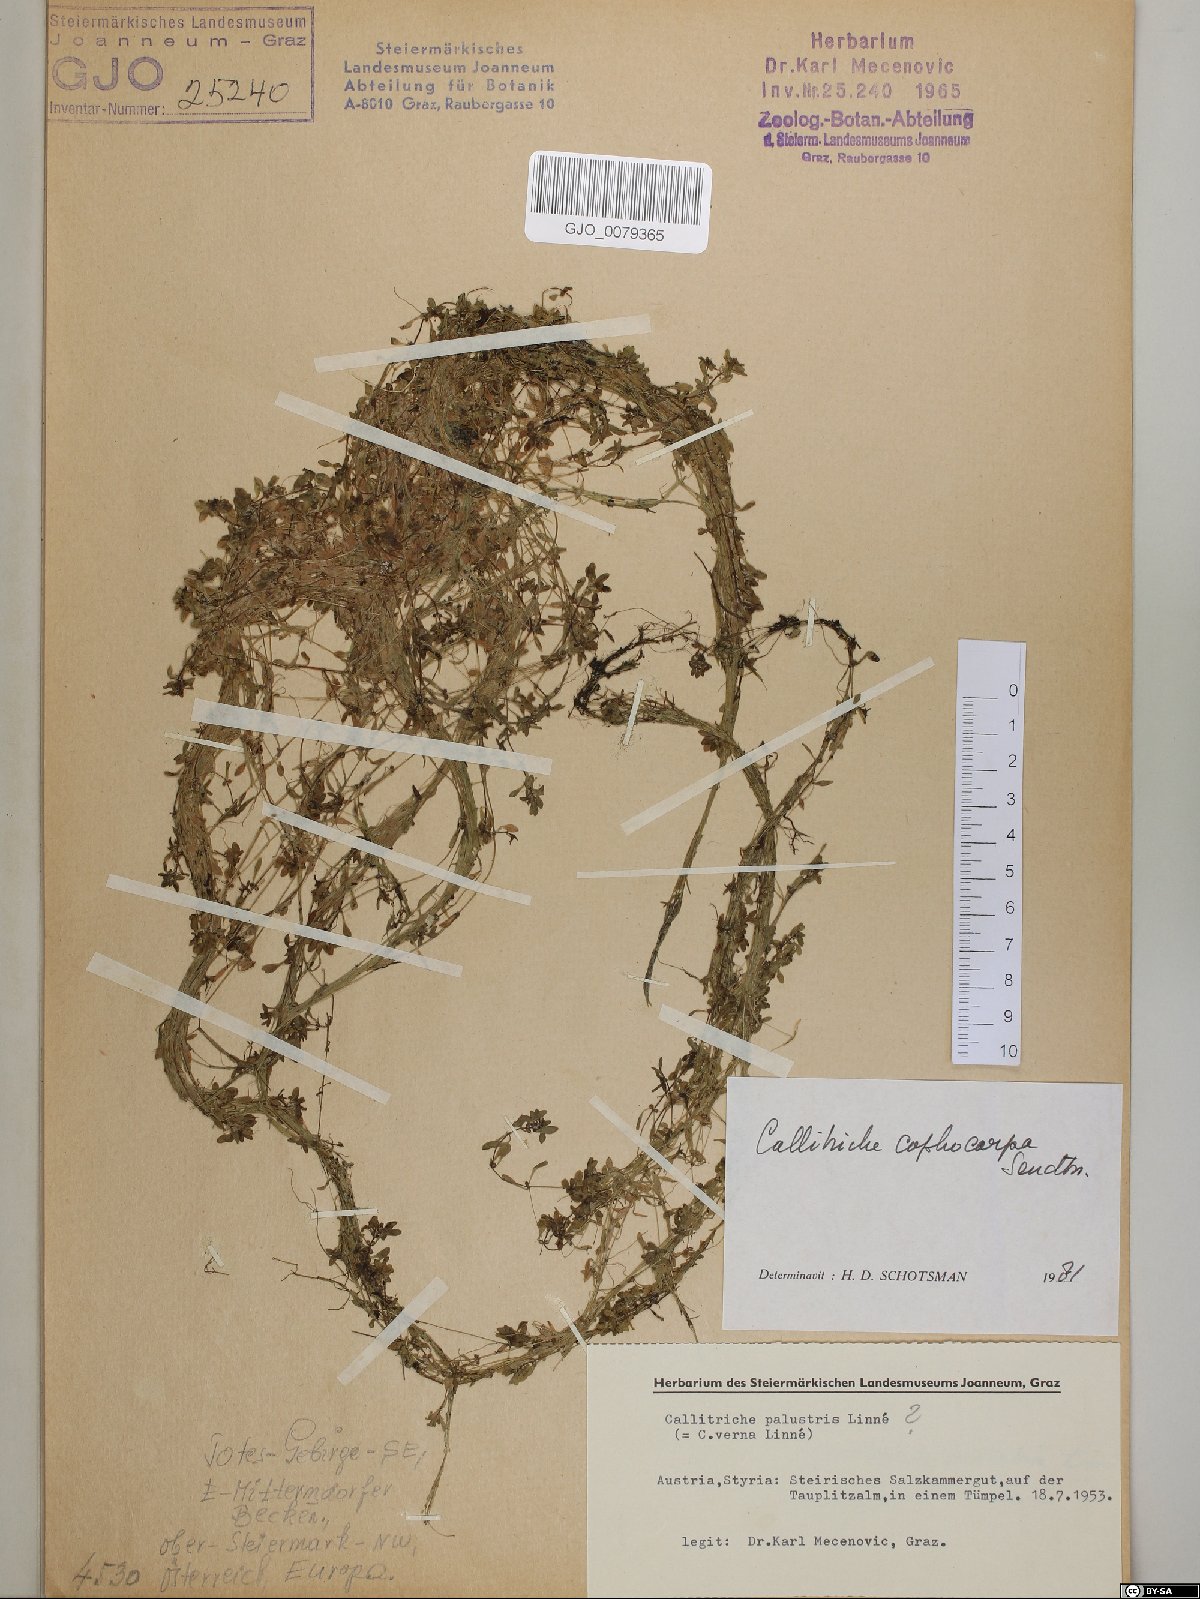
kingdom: Plantae
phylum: Tracheophyta
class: Magnoliopsida
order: Lamiales
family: Plantaginaceae
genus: Callitriche
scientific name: Callitriche cophocarpa
